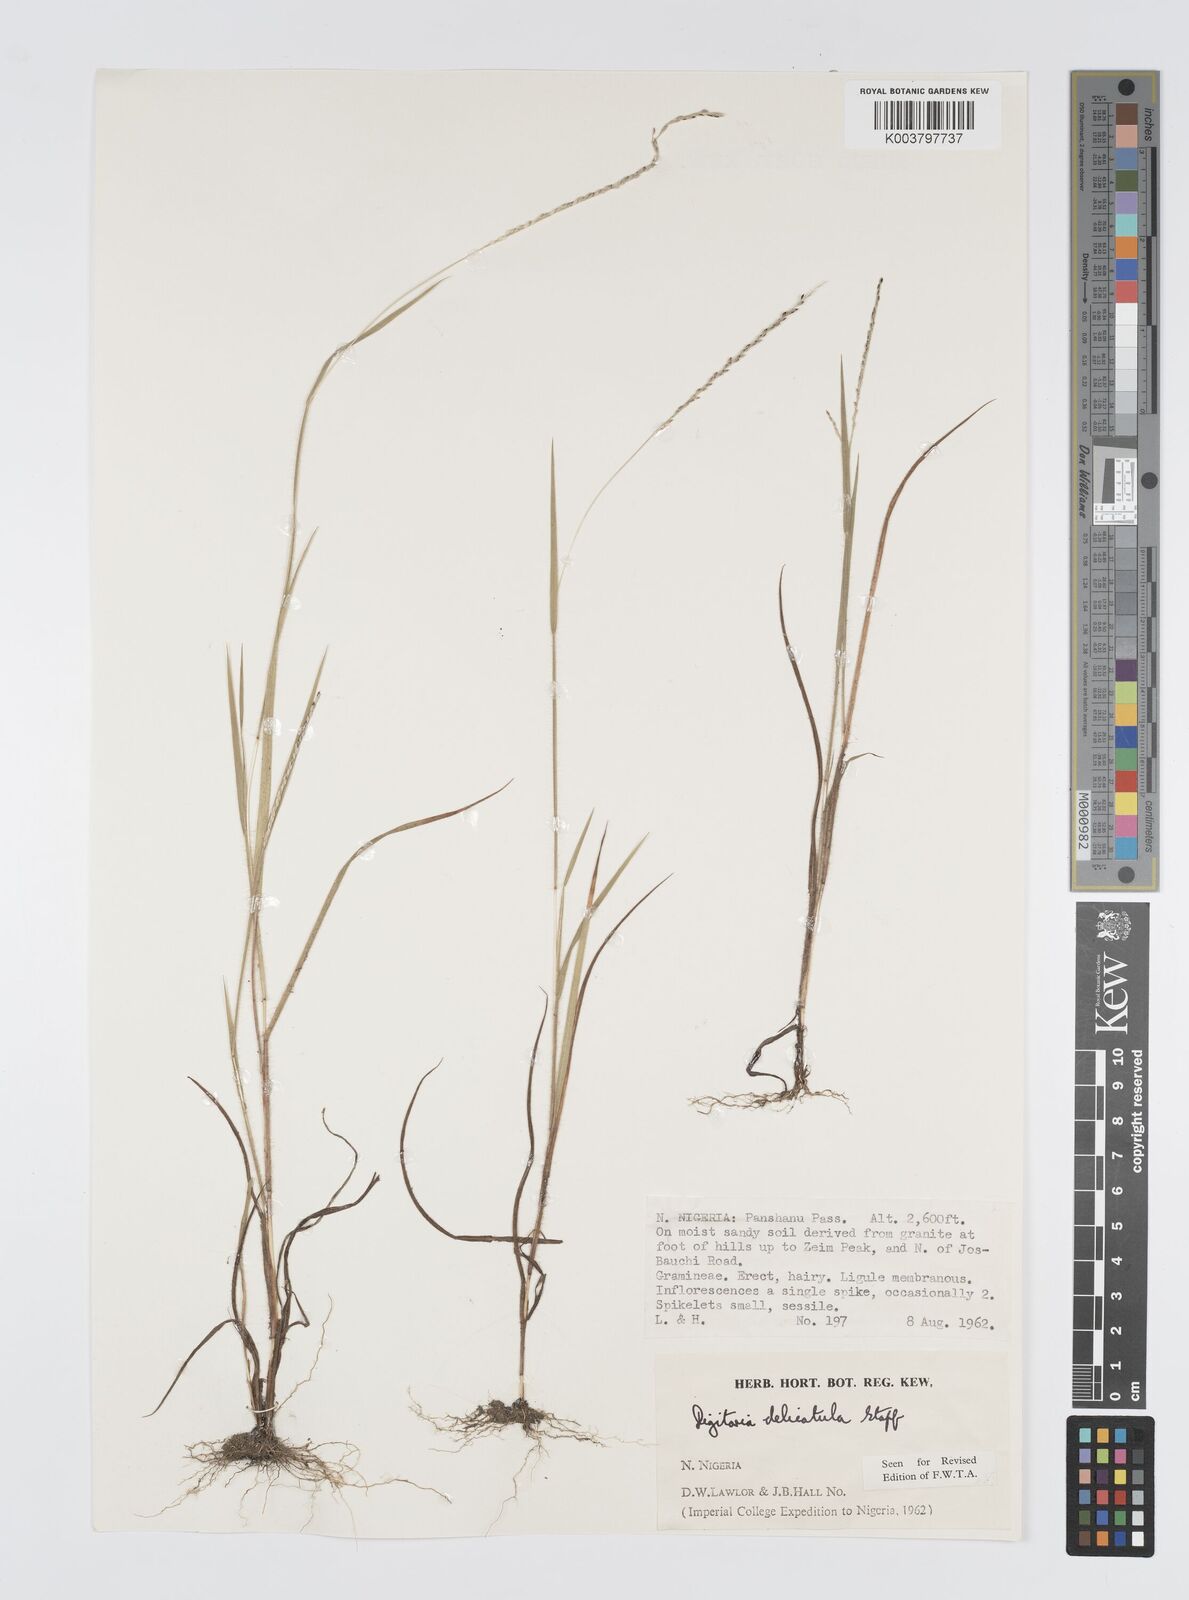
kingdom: Plantae
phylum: Tracheophyta
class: Liliopsida
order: Poales
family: Poaceae
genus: Digitaria
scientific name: Digitaria delicatula
